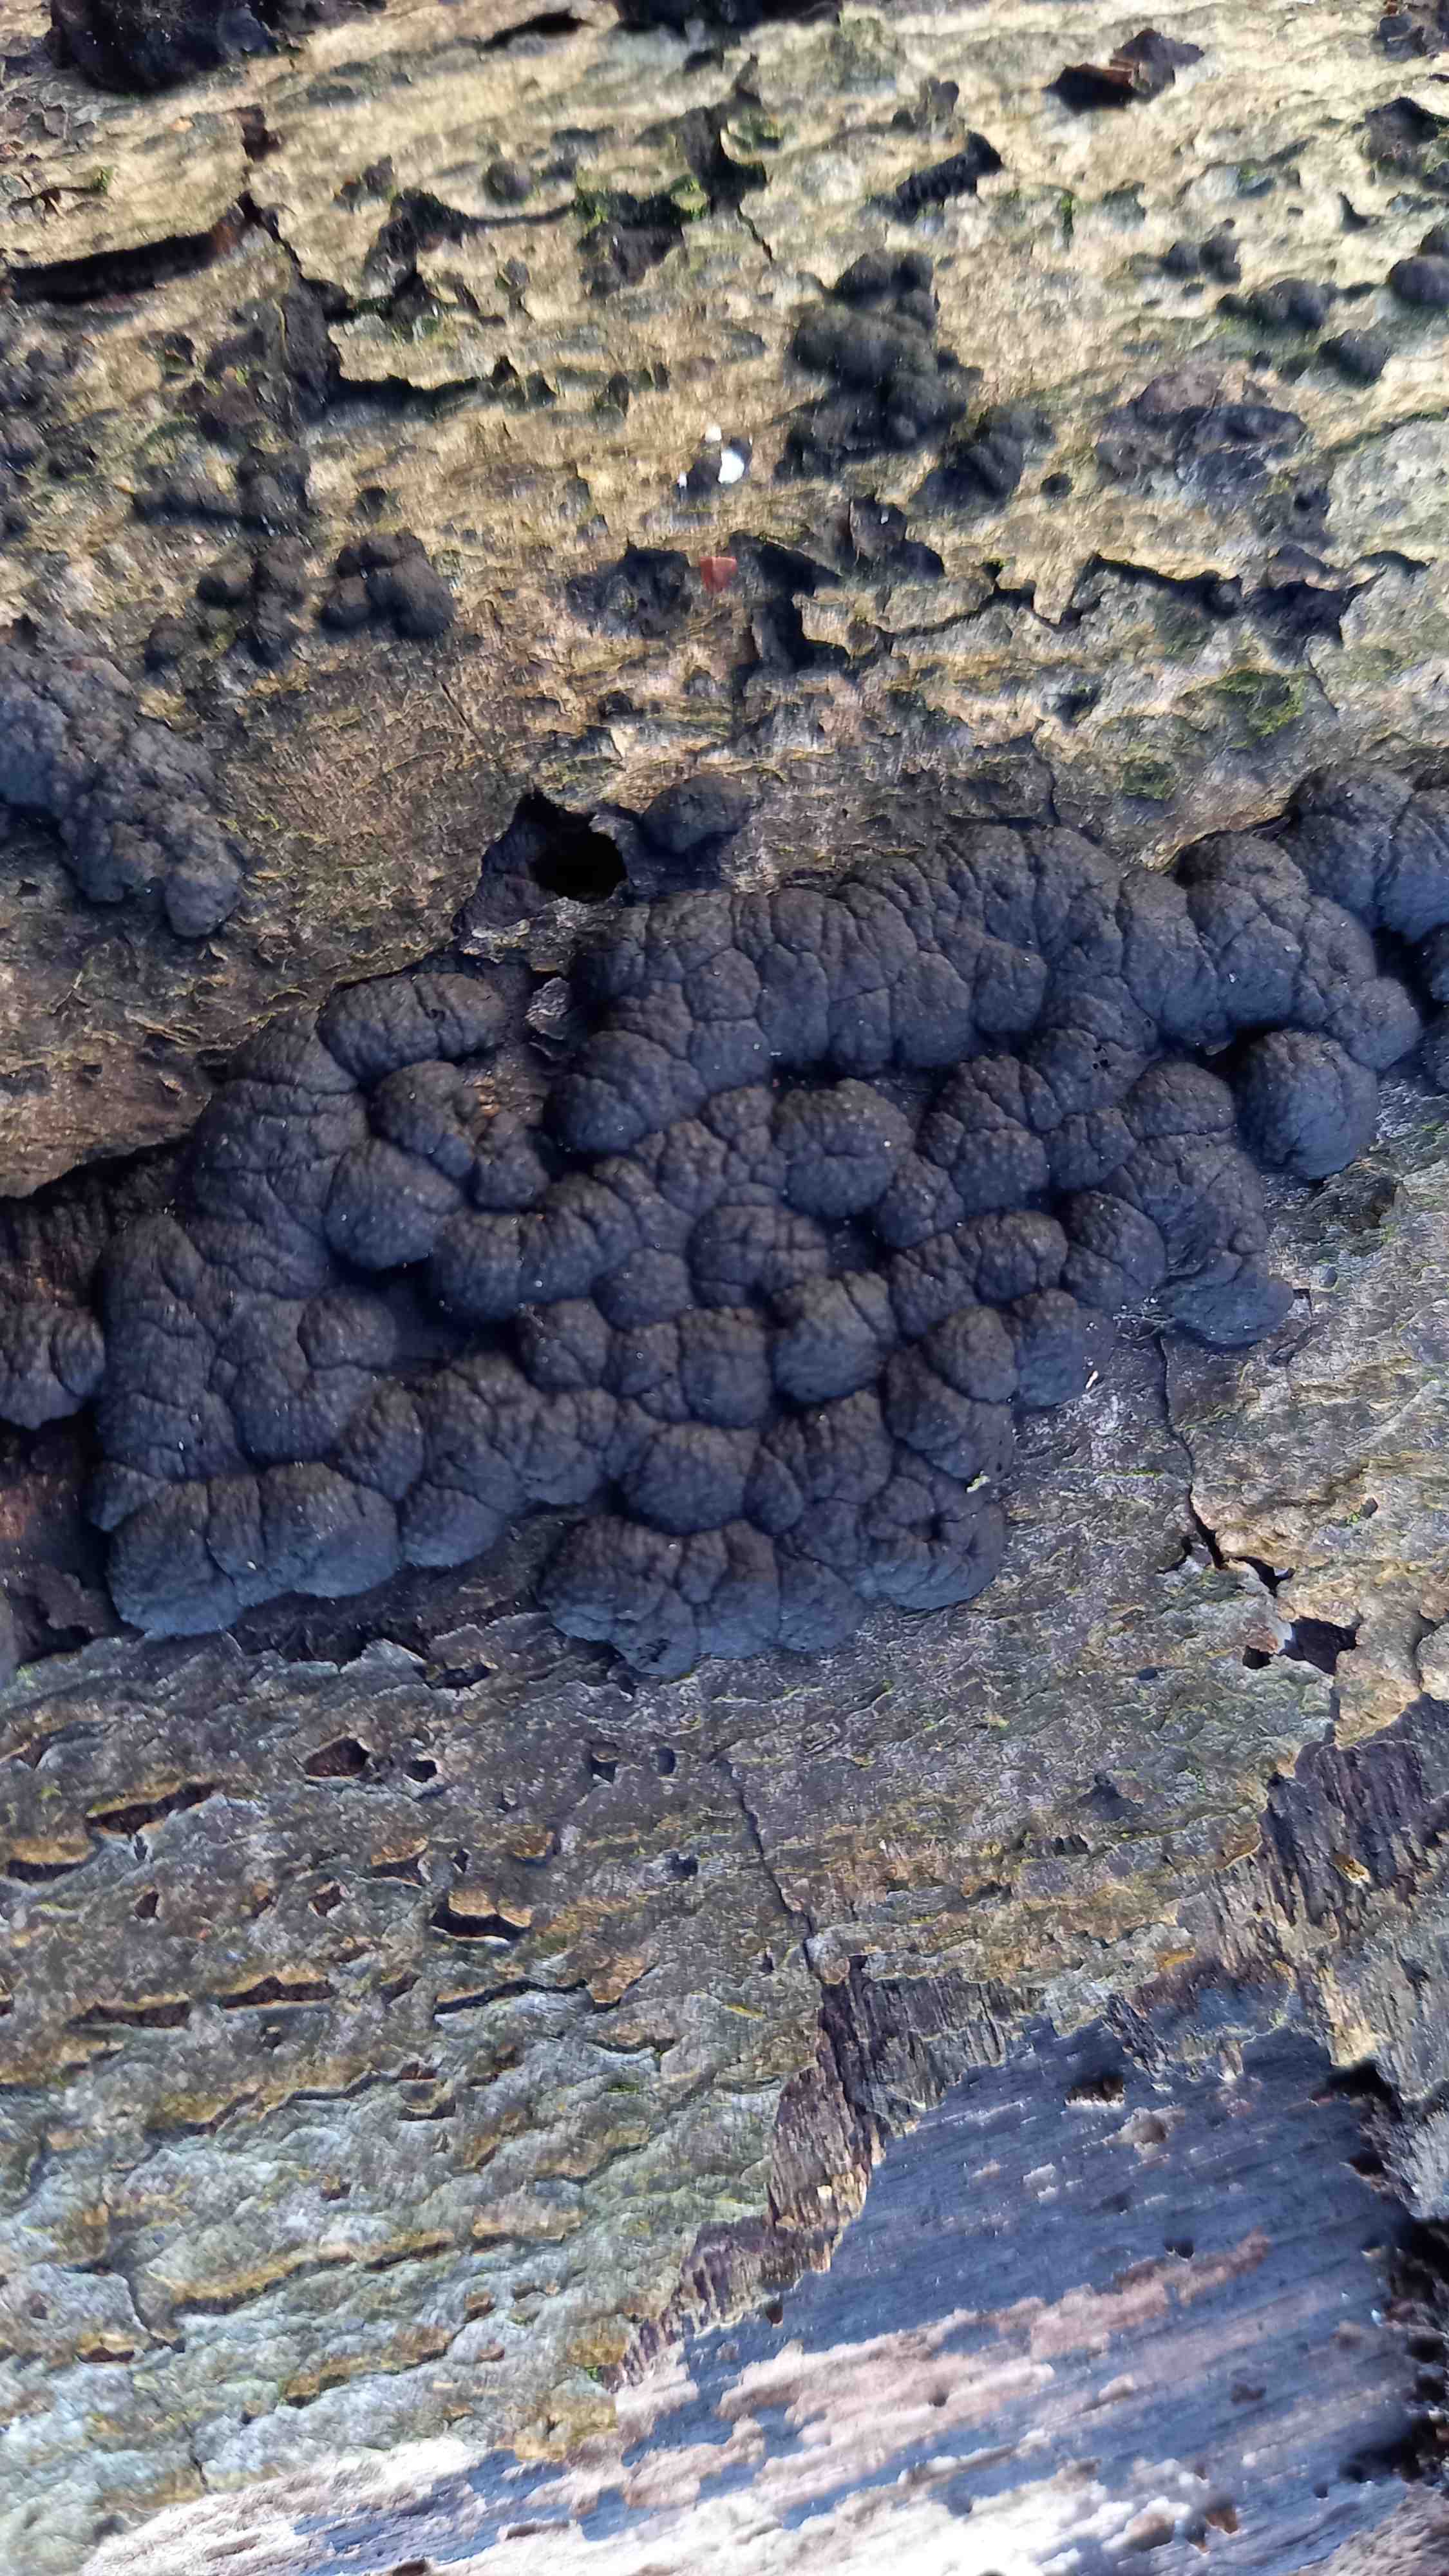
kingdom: Fungi
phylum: Ascomycota
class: Sordariomycetes
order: Xylariales
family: Hypoxylaceae
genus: Jackrogersella
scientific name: Jackrogersella cohaerens
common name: sammenflydende kulbær
